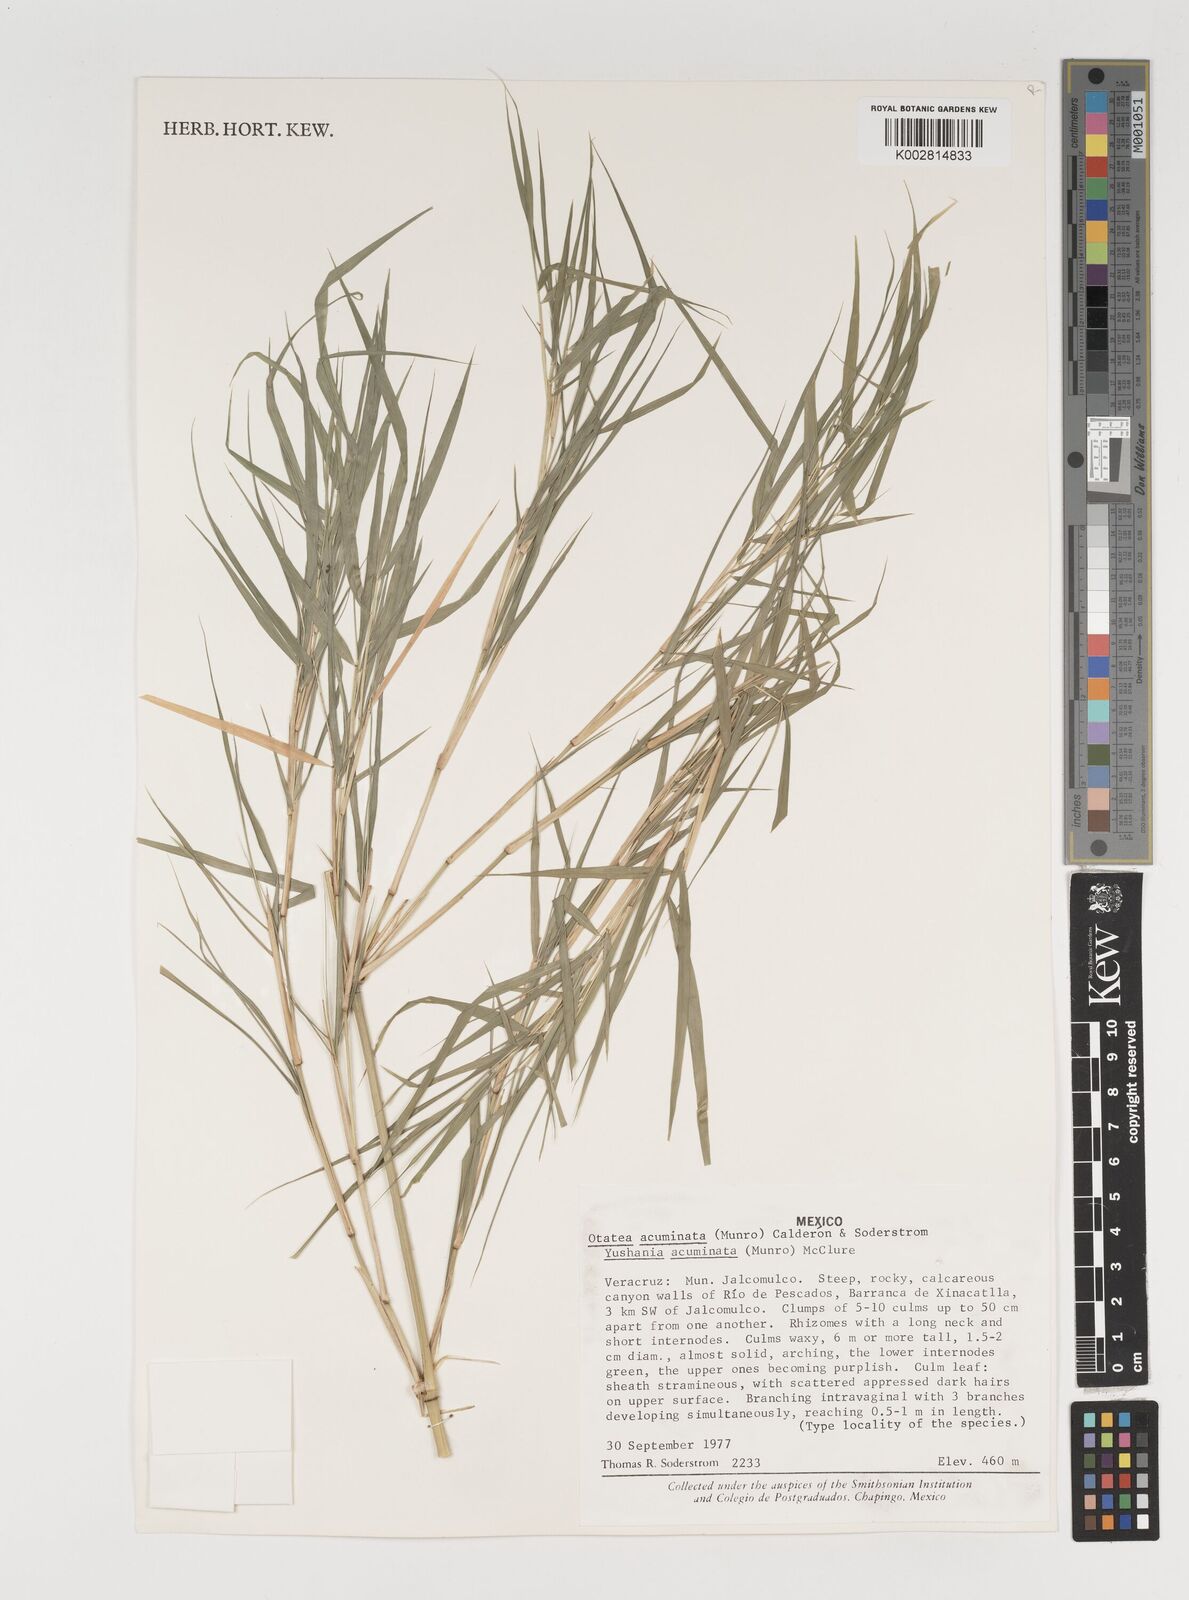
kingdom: Plantae
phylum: Tracheophyta
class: Liliopsida
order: Poales
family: Poaceae
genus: Olmeca
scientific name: Olmeca
